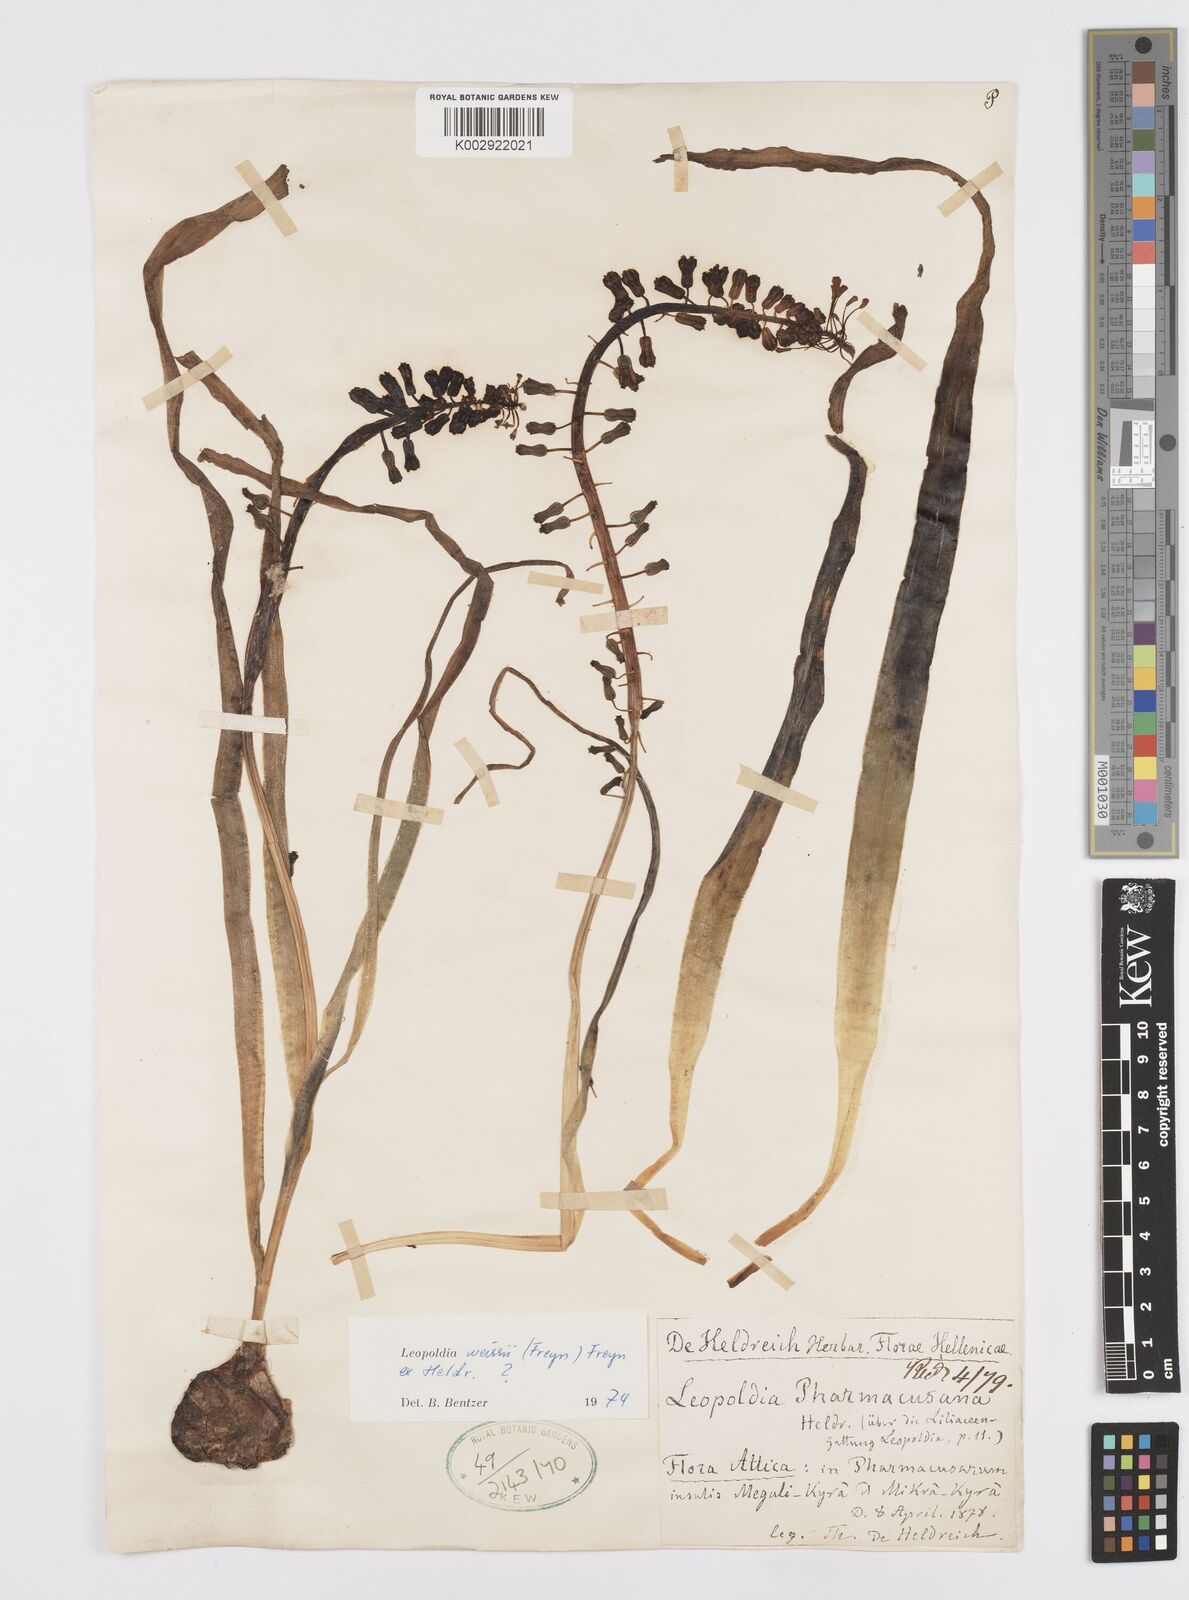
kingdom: Plantae
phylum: Tracheophyta
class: Liliopsida
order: Asparagales
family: Asparagaceae
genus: Muscari
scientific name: Muscari weissii
